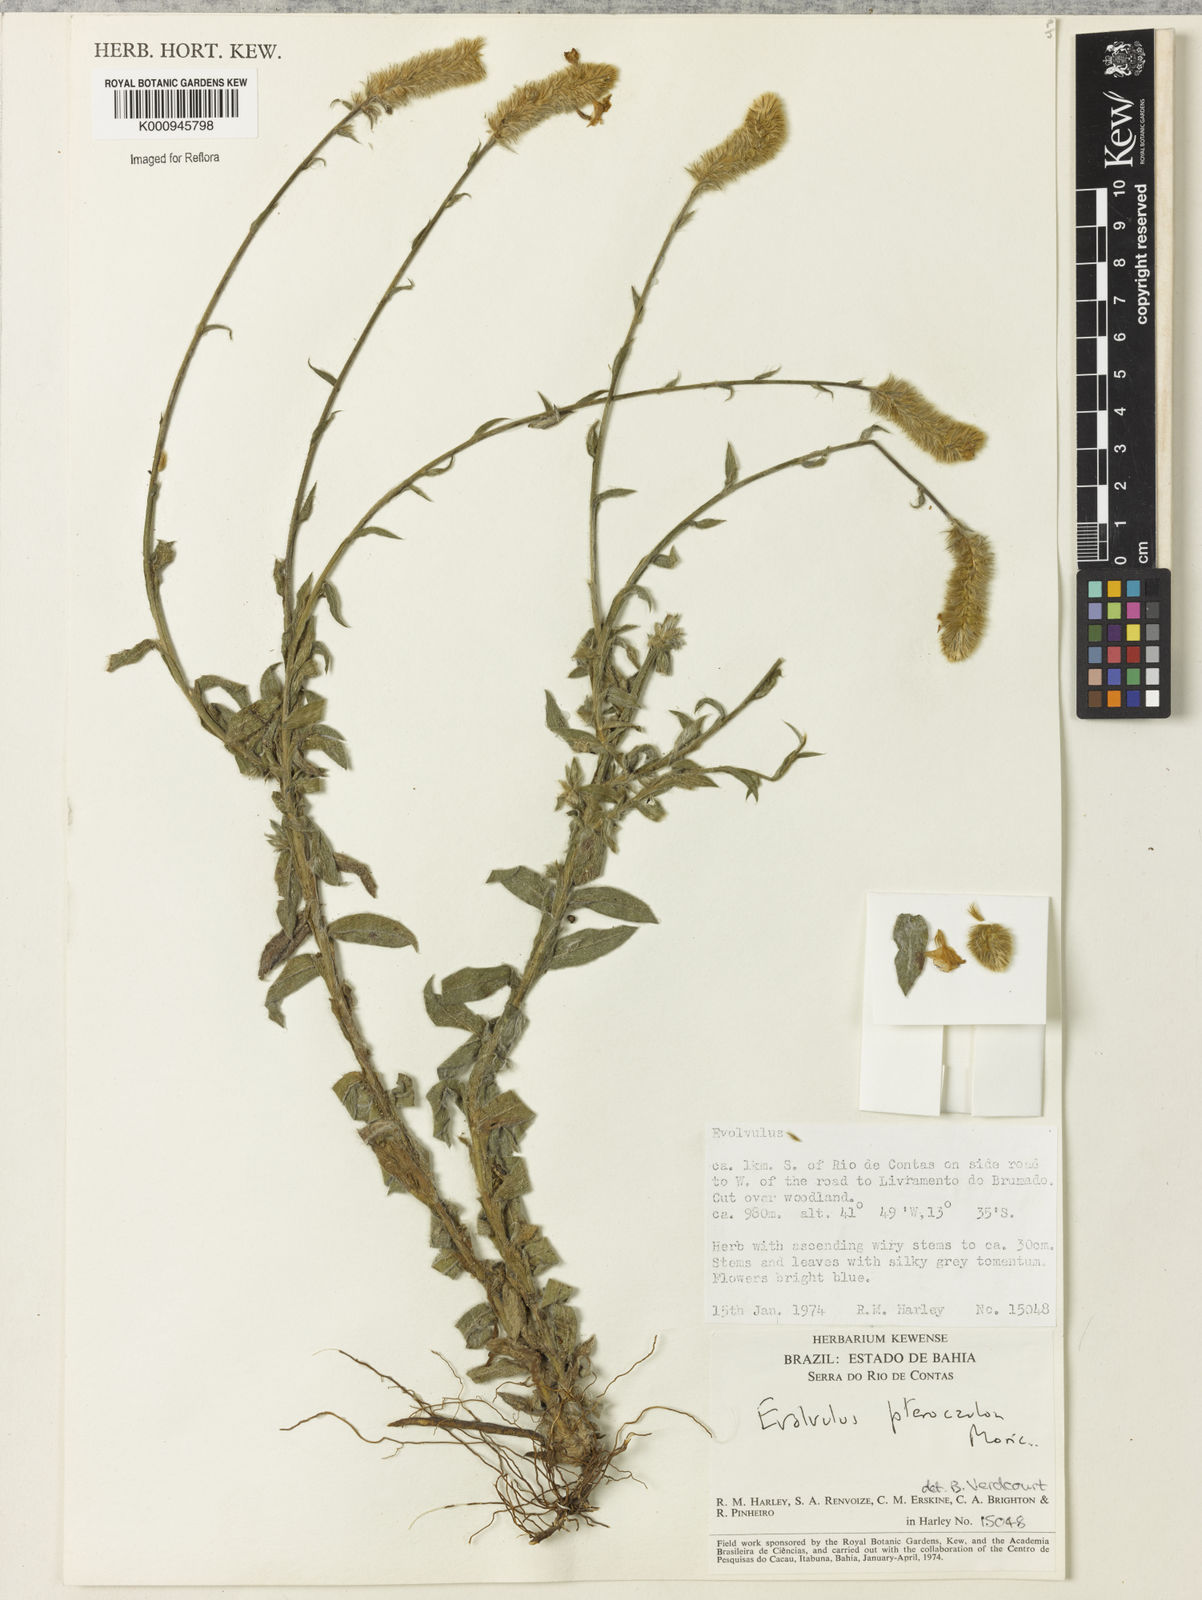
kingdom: Plantae
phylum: Tracheophyta
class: Magnoliopsida
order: Solanales
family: Convolvulaceae
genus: Evolvulus
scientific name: Evolvulus pterocaulon
